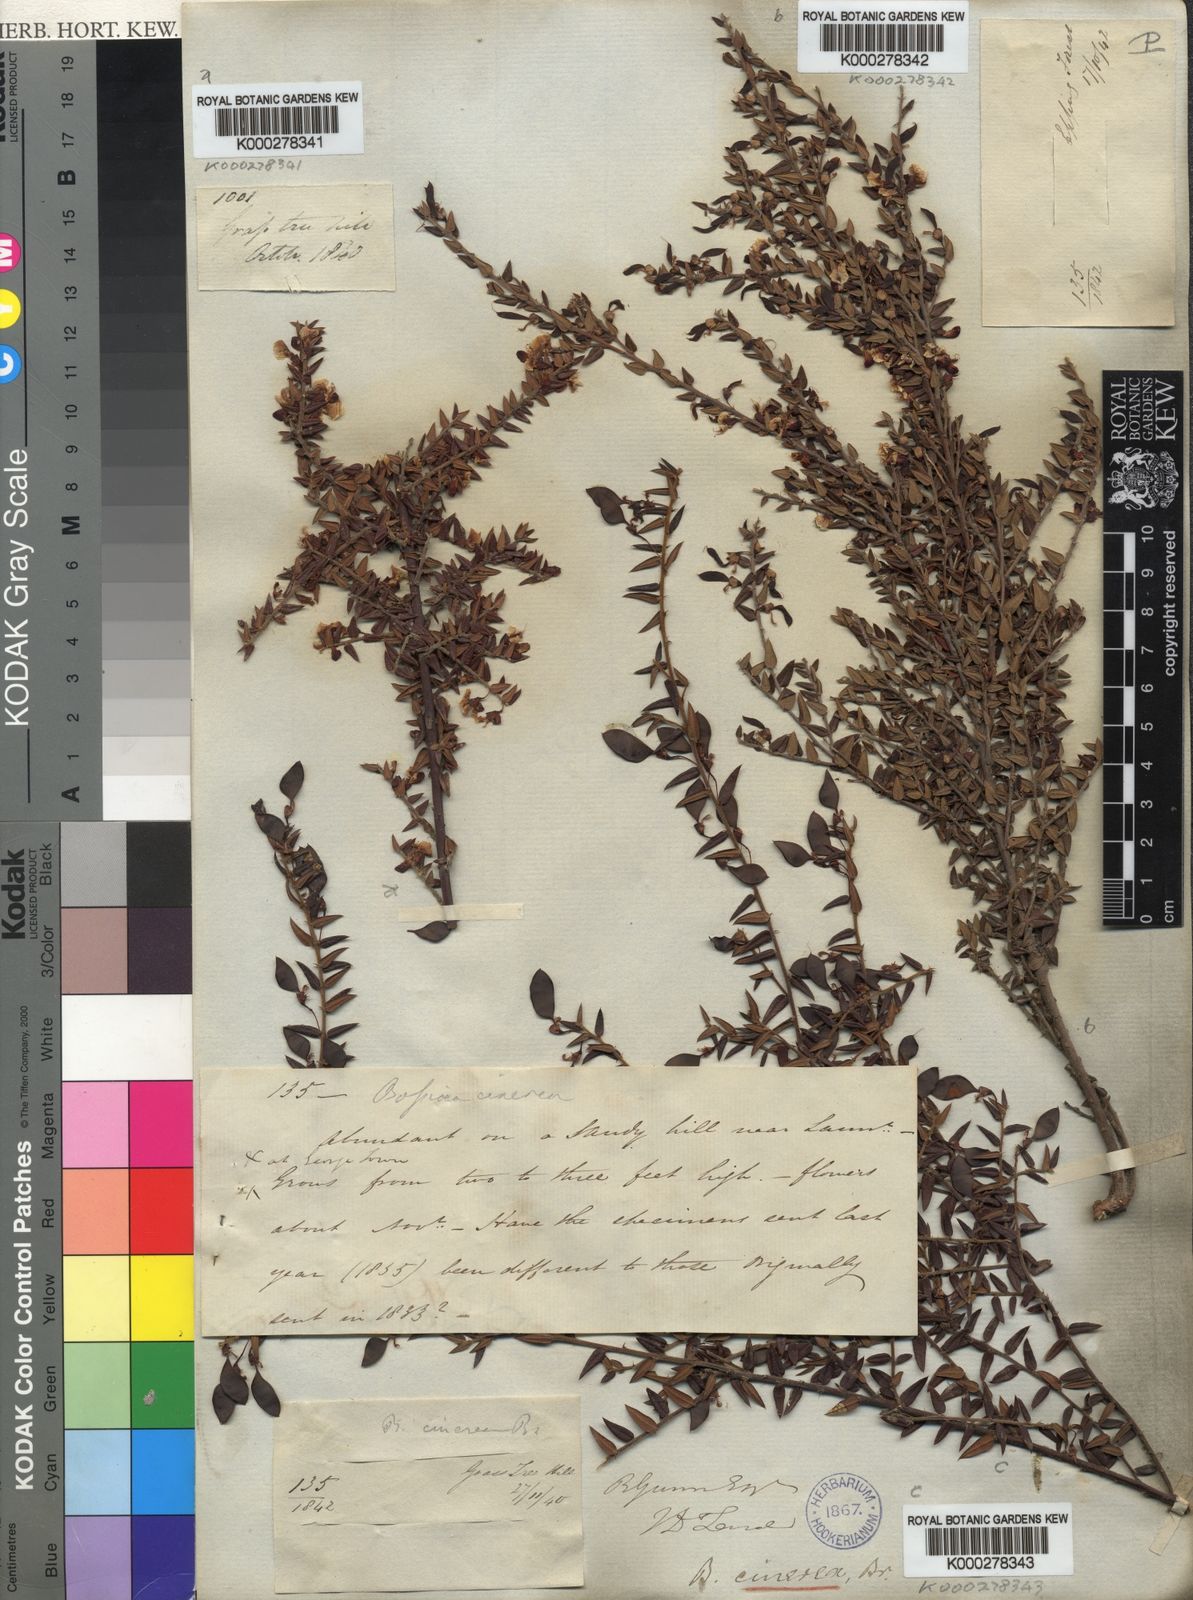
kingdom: Plantae
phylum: Tracheophyta
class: Magnoliopsida
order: Fabales
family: Fabaceae
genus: Bossiaea
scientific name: Bossiaea cinerea
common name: Showy bossiaea
